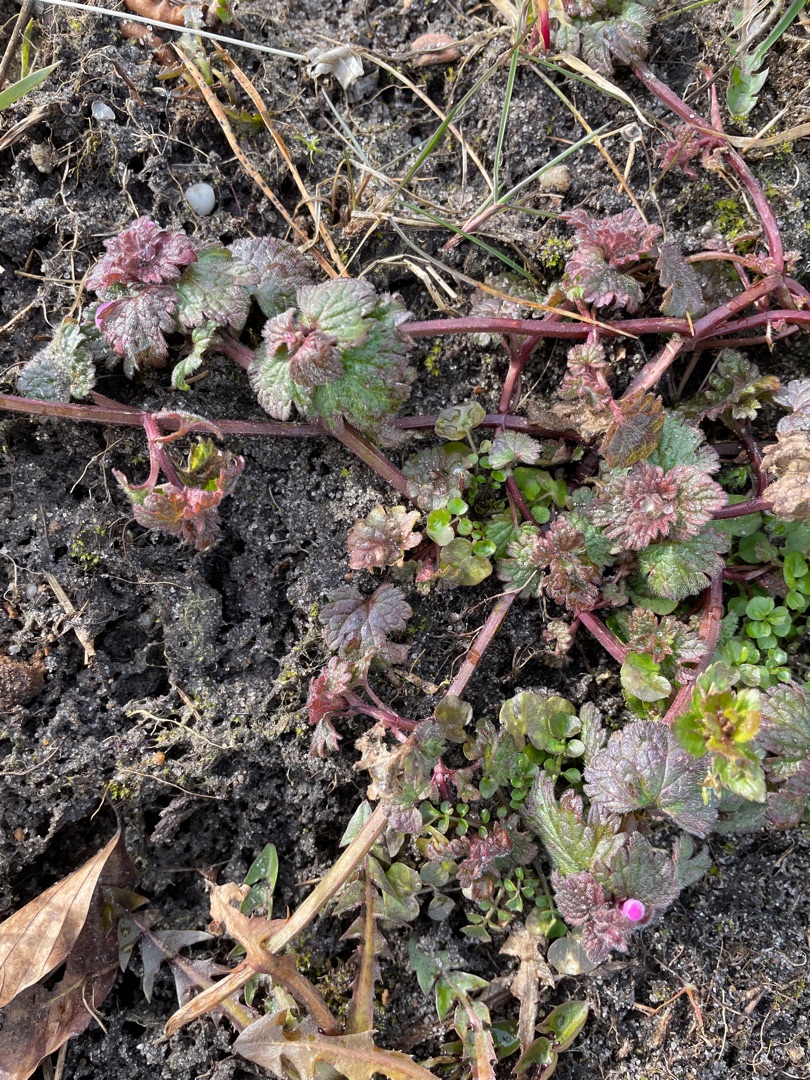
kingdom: Plantae
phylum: Tracheophyta
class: Magnoliopsida
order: Lamiales
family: Lamiaceae
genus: Lamium
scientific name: Lamium amplexicaule
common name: Liden tvetand
